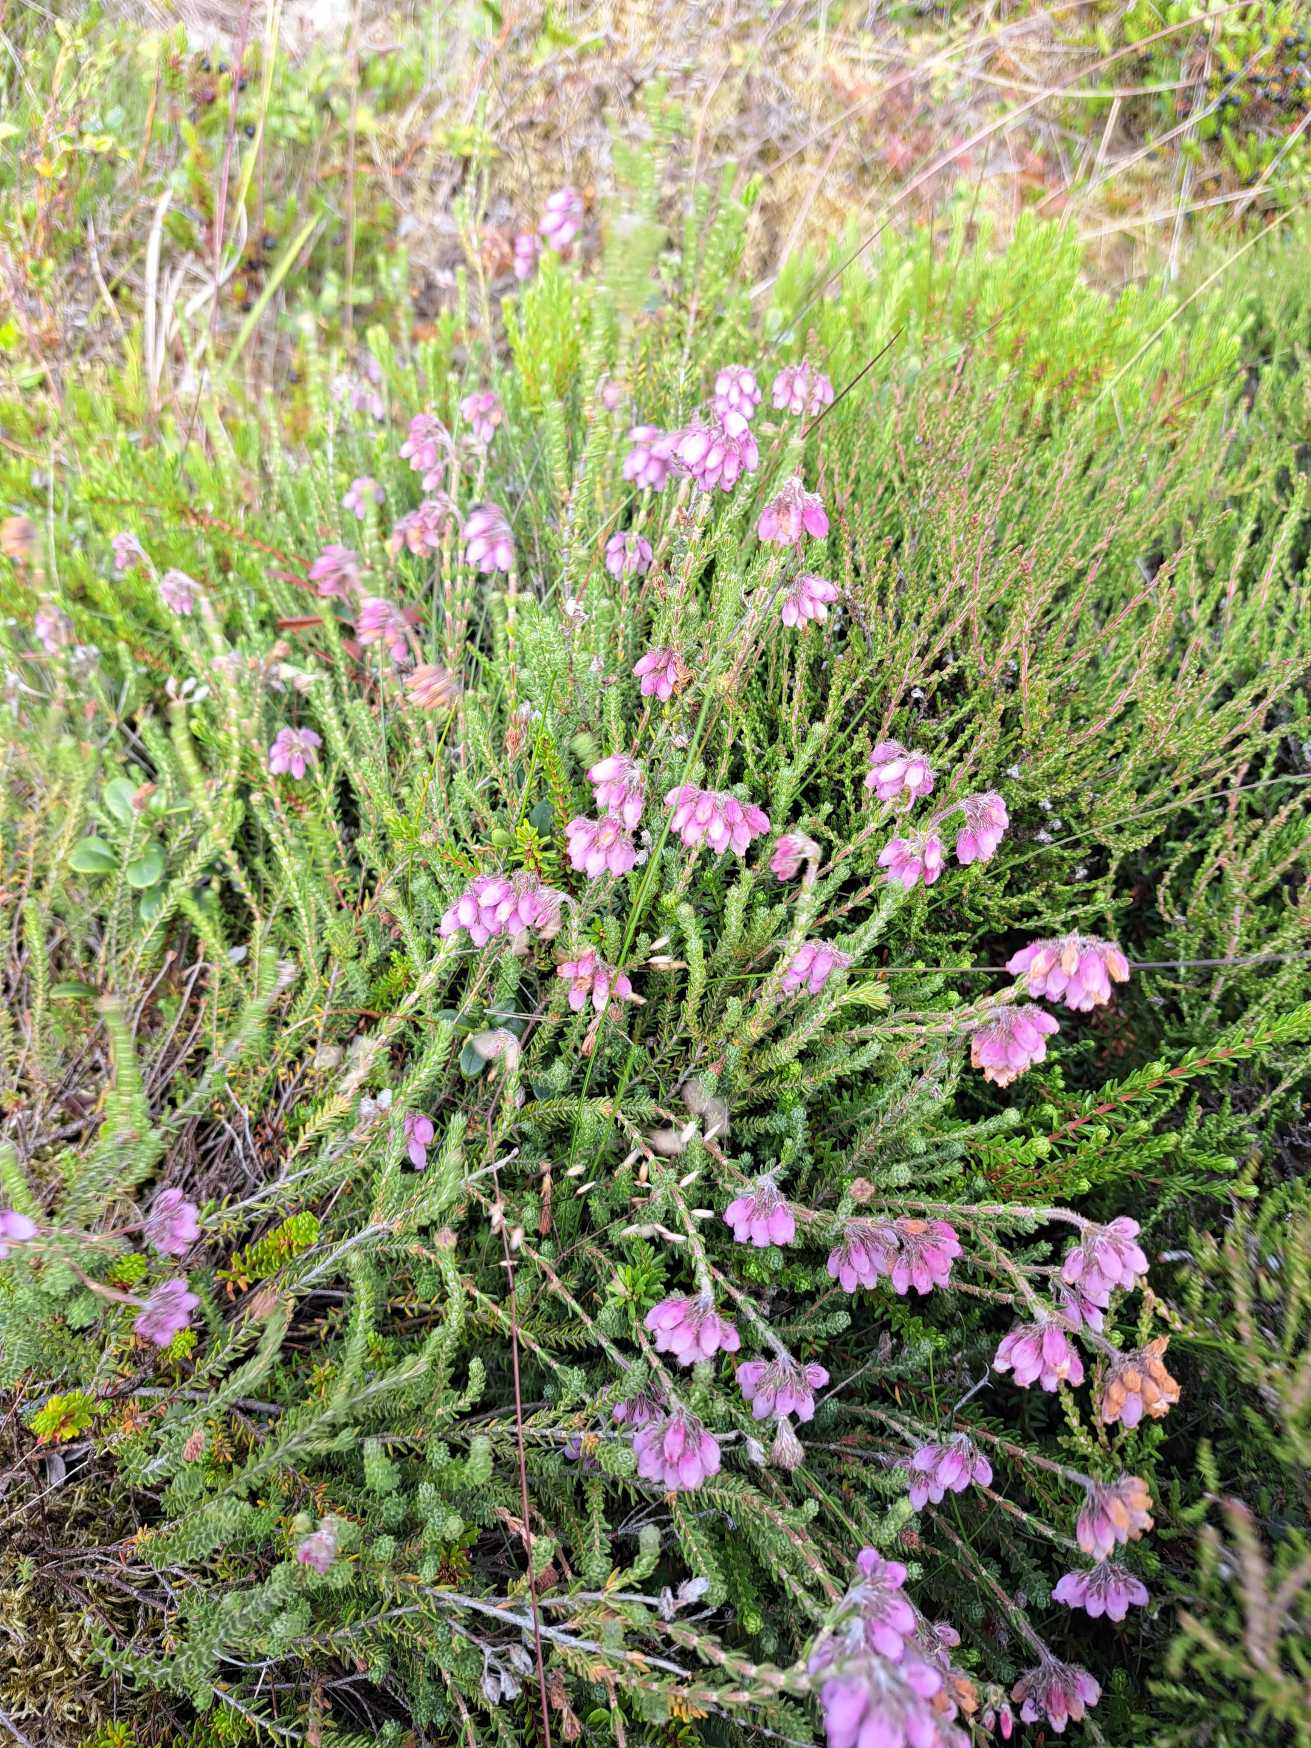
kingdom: Plantae
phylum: Tracheophyta
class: Magnoliopsida
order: Ericales
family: Ericaceae
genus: Erica
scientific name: Erica tetralix
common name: Klokkelyng
